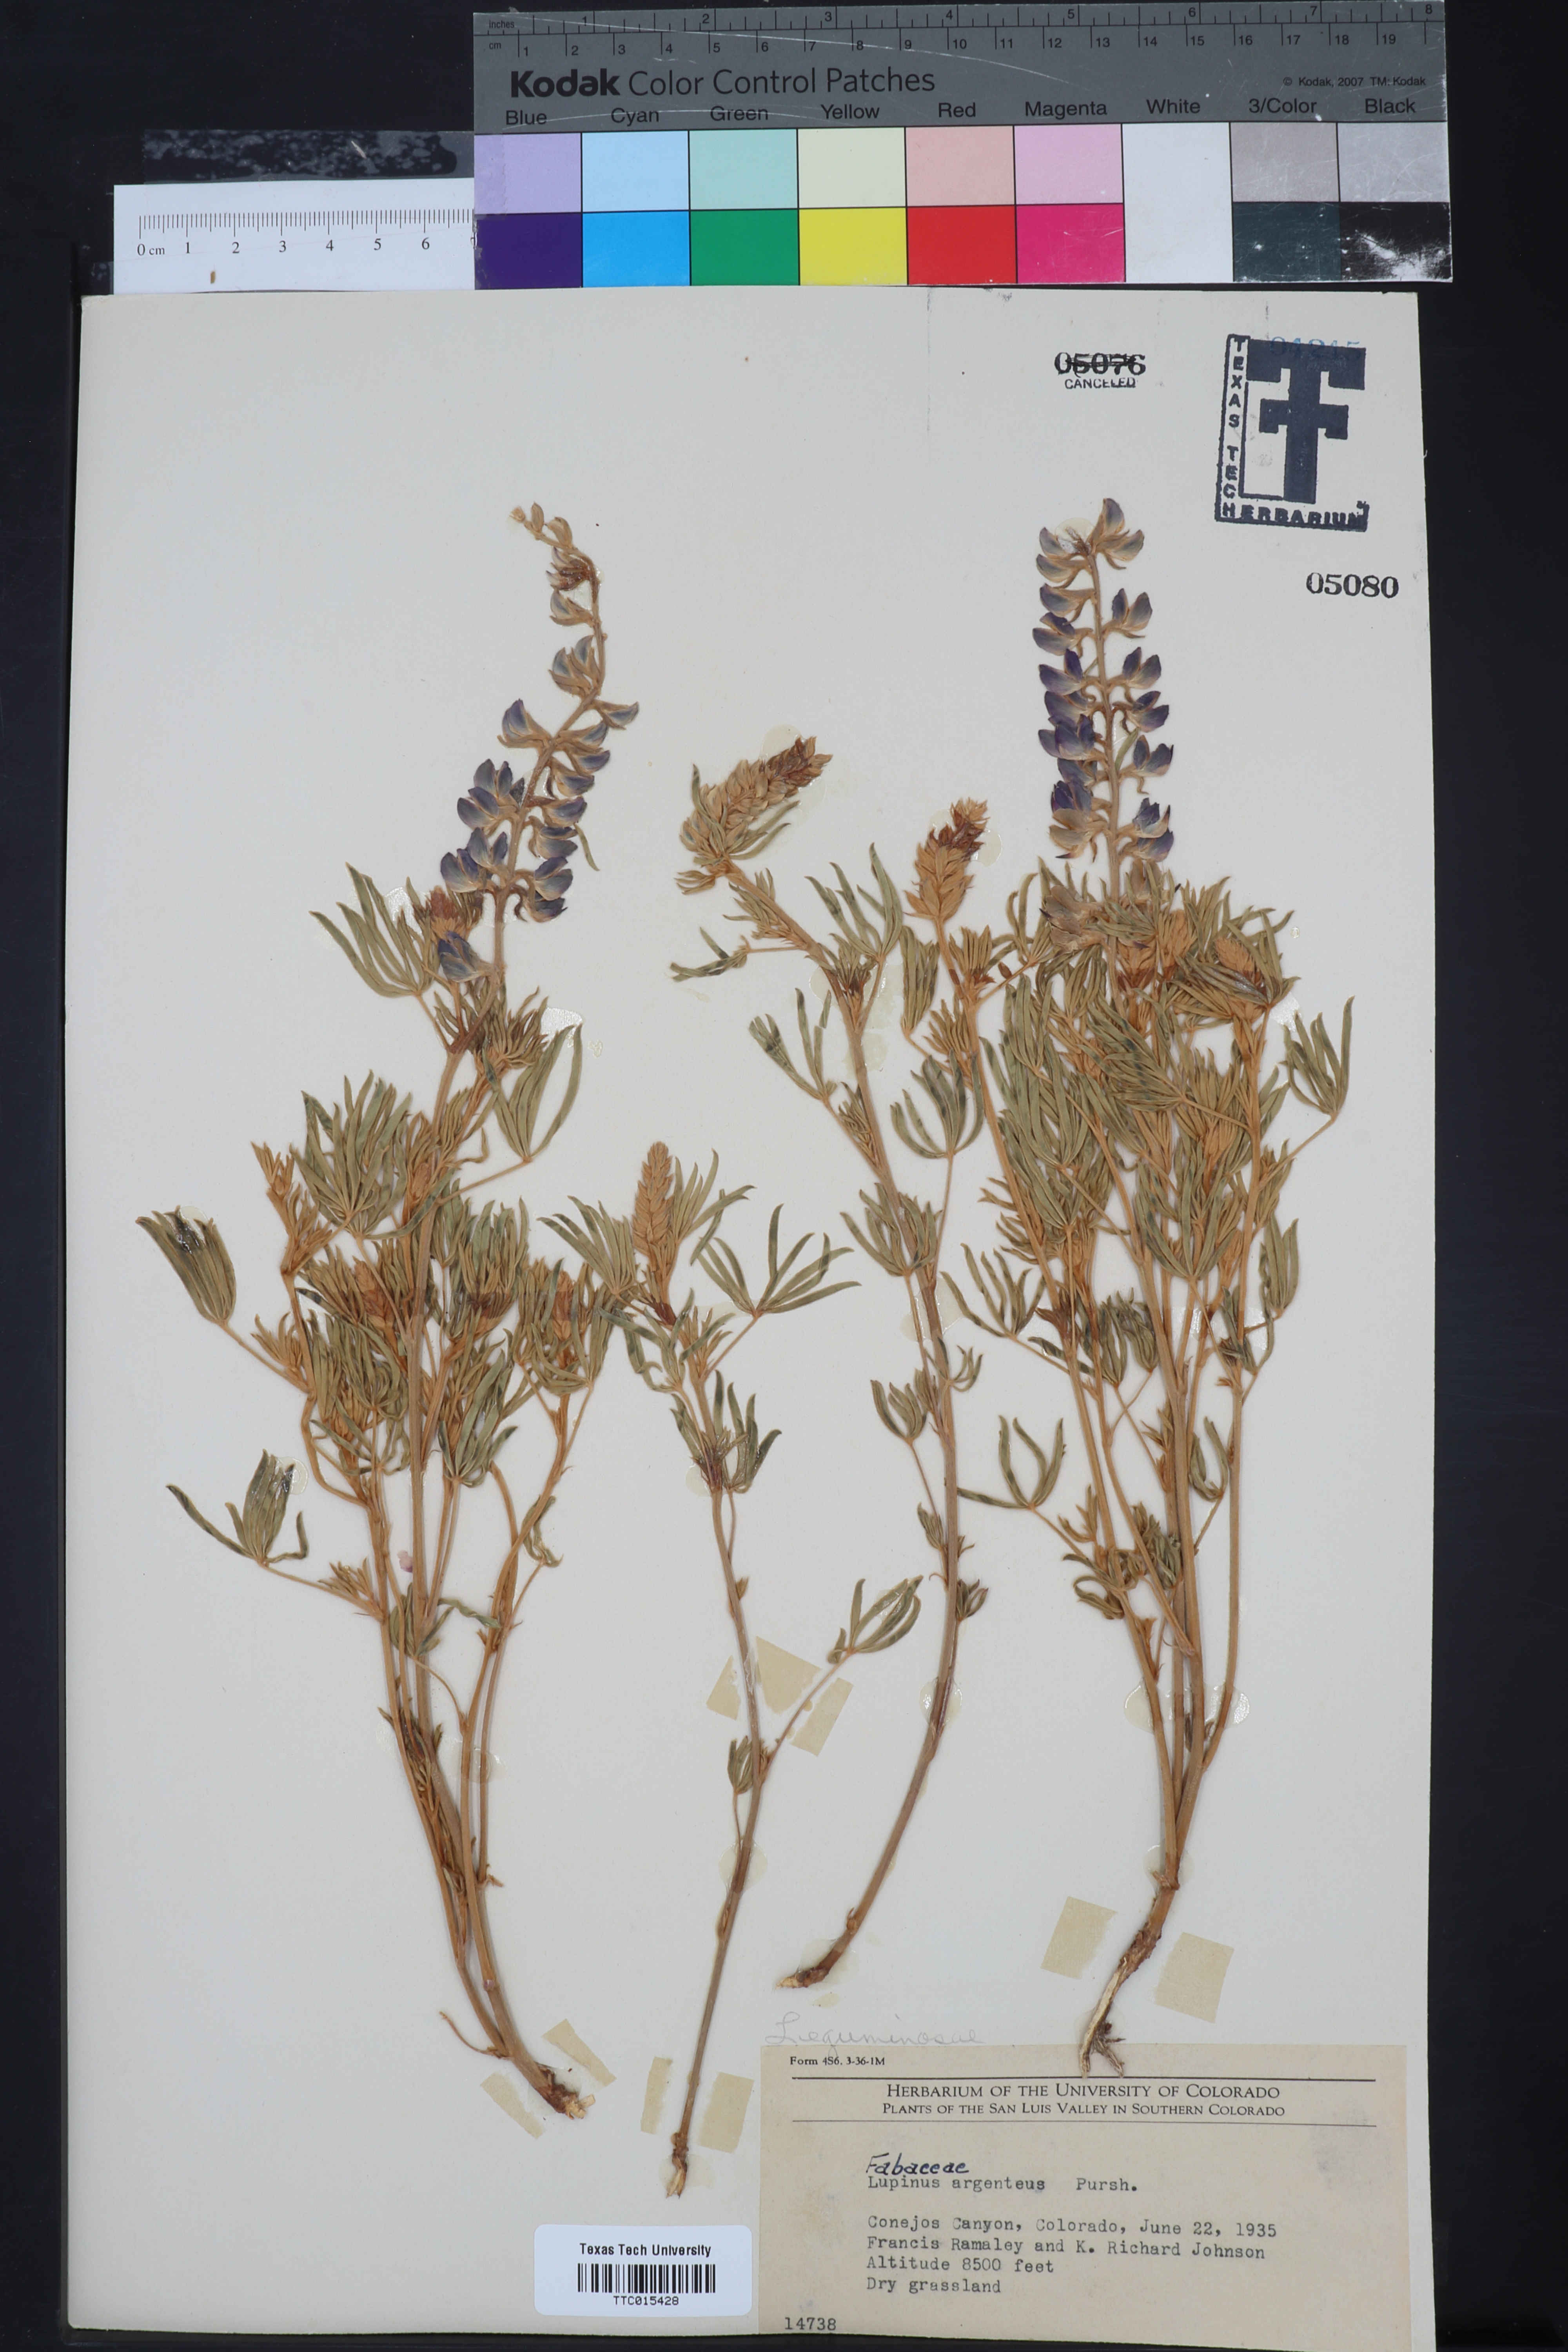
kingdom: Plantae
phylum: Tracheophyta
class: Magnoliopsida
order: Fabales
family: Fabaceae
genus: Lupinus
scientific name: Lupinus argenteus
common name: Silvery lupine
